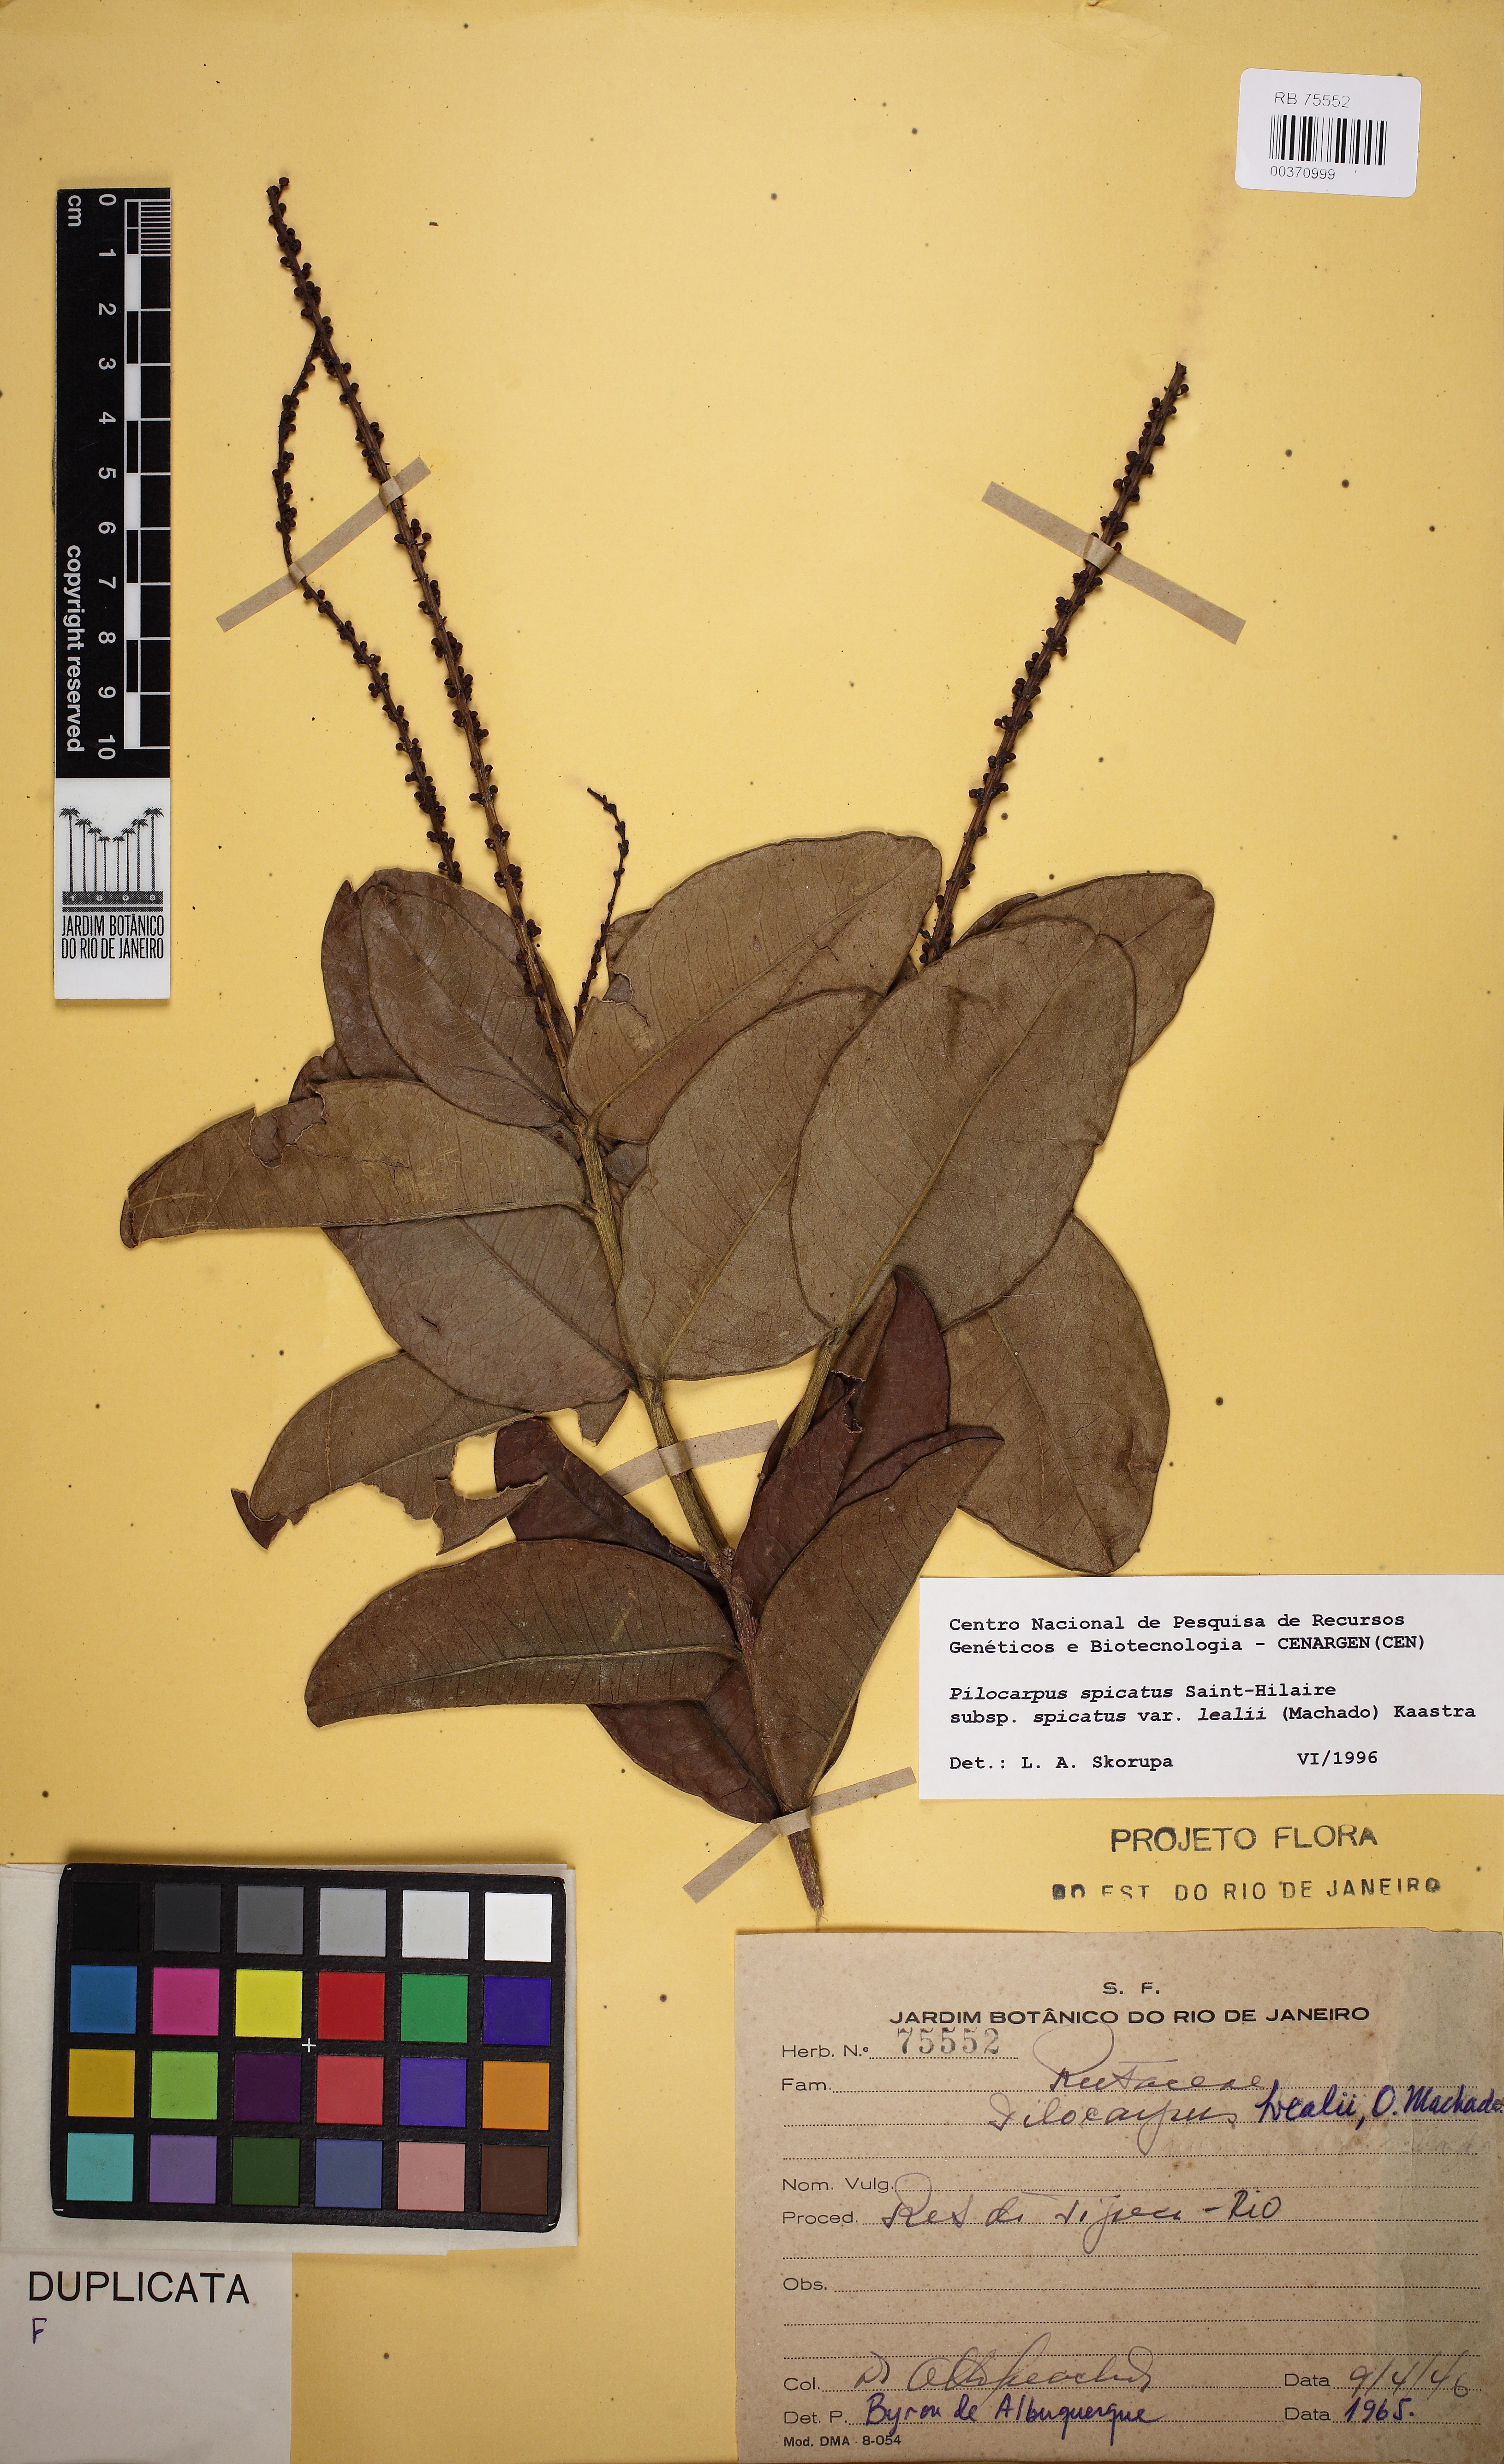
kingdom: Plantae
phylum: Tracheophyta
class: Magnoliopsida
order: Sapindales
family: Rutaceae
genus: Pilocarpus
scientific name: Pilocarpus spicatus
